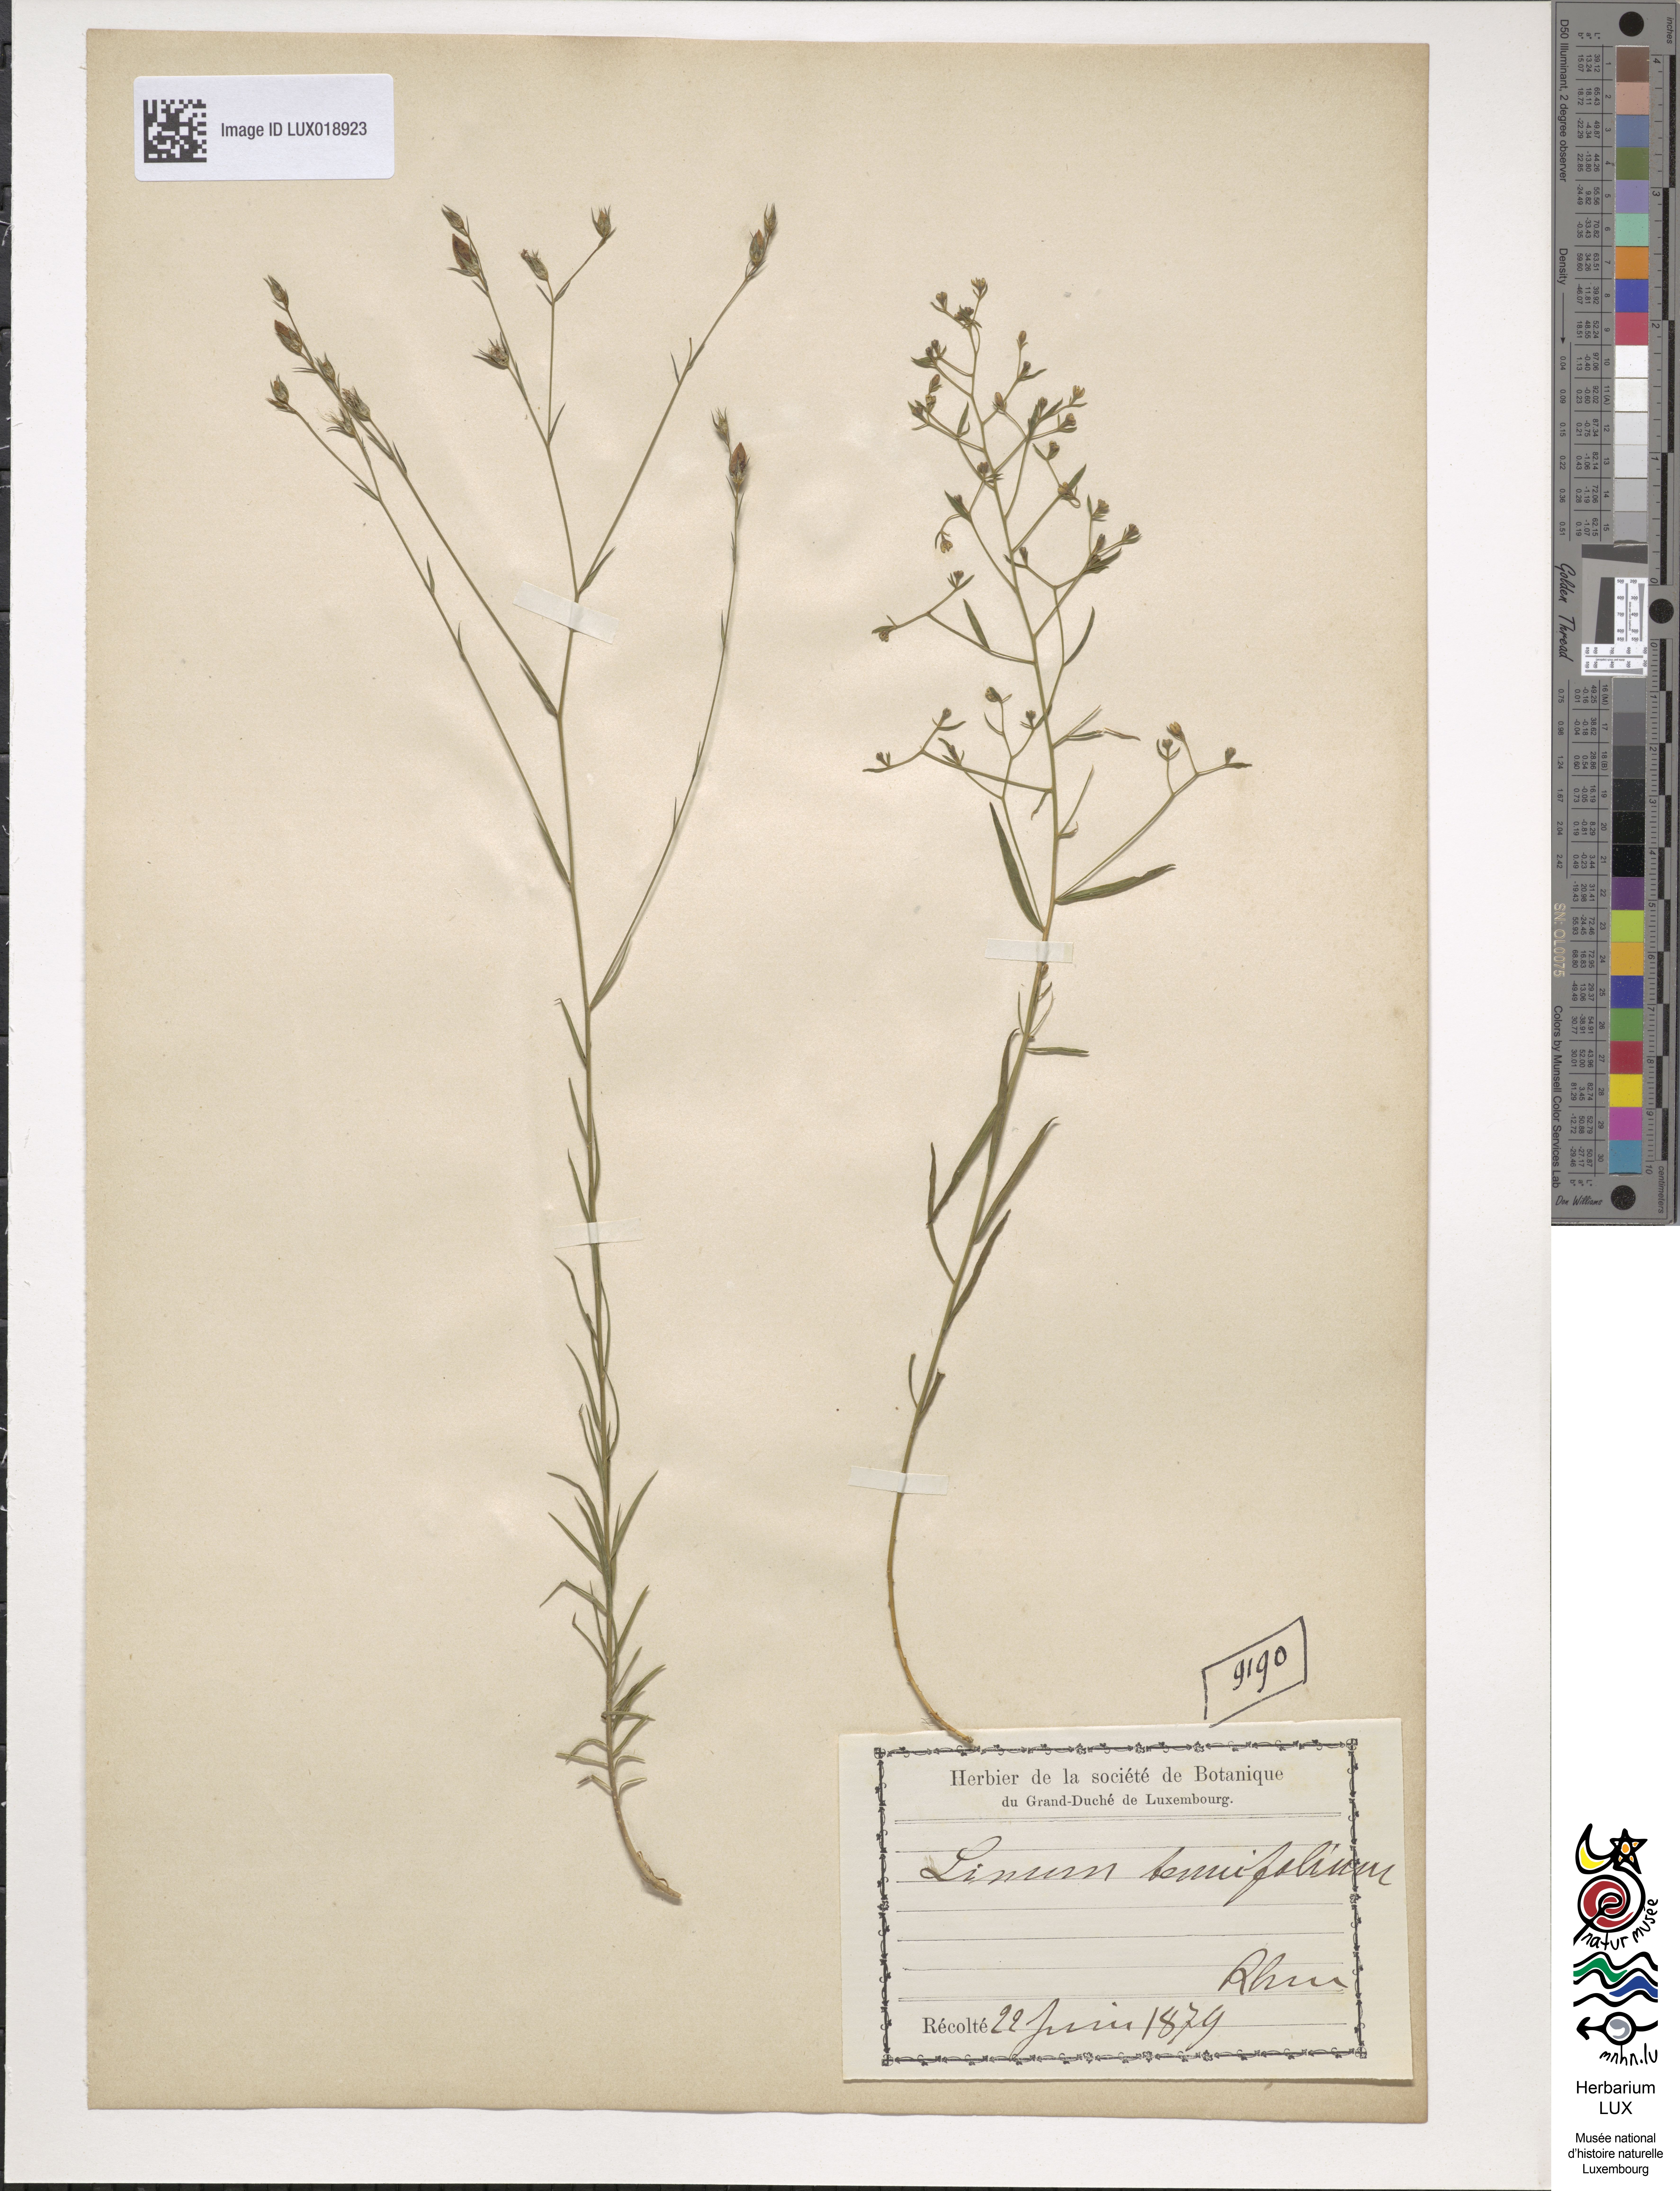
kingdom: Plantae
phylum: Tracheophyta
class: Magnoliopsida
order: Malpighiales
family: Linaceae
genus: Linum
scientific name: Linum tenuifolium
